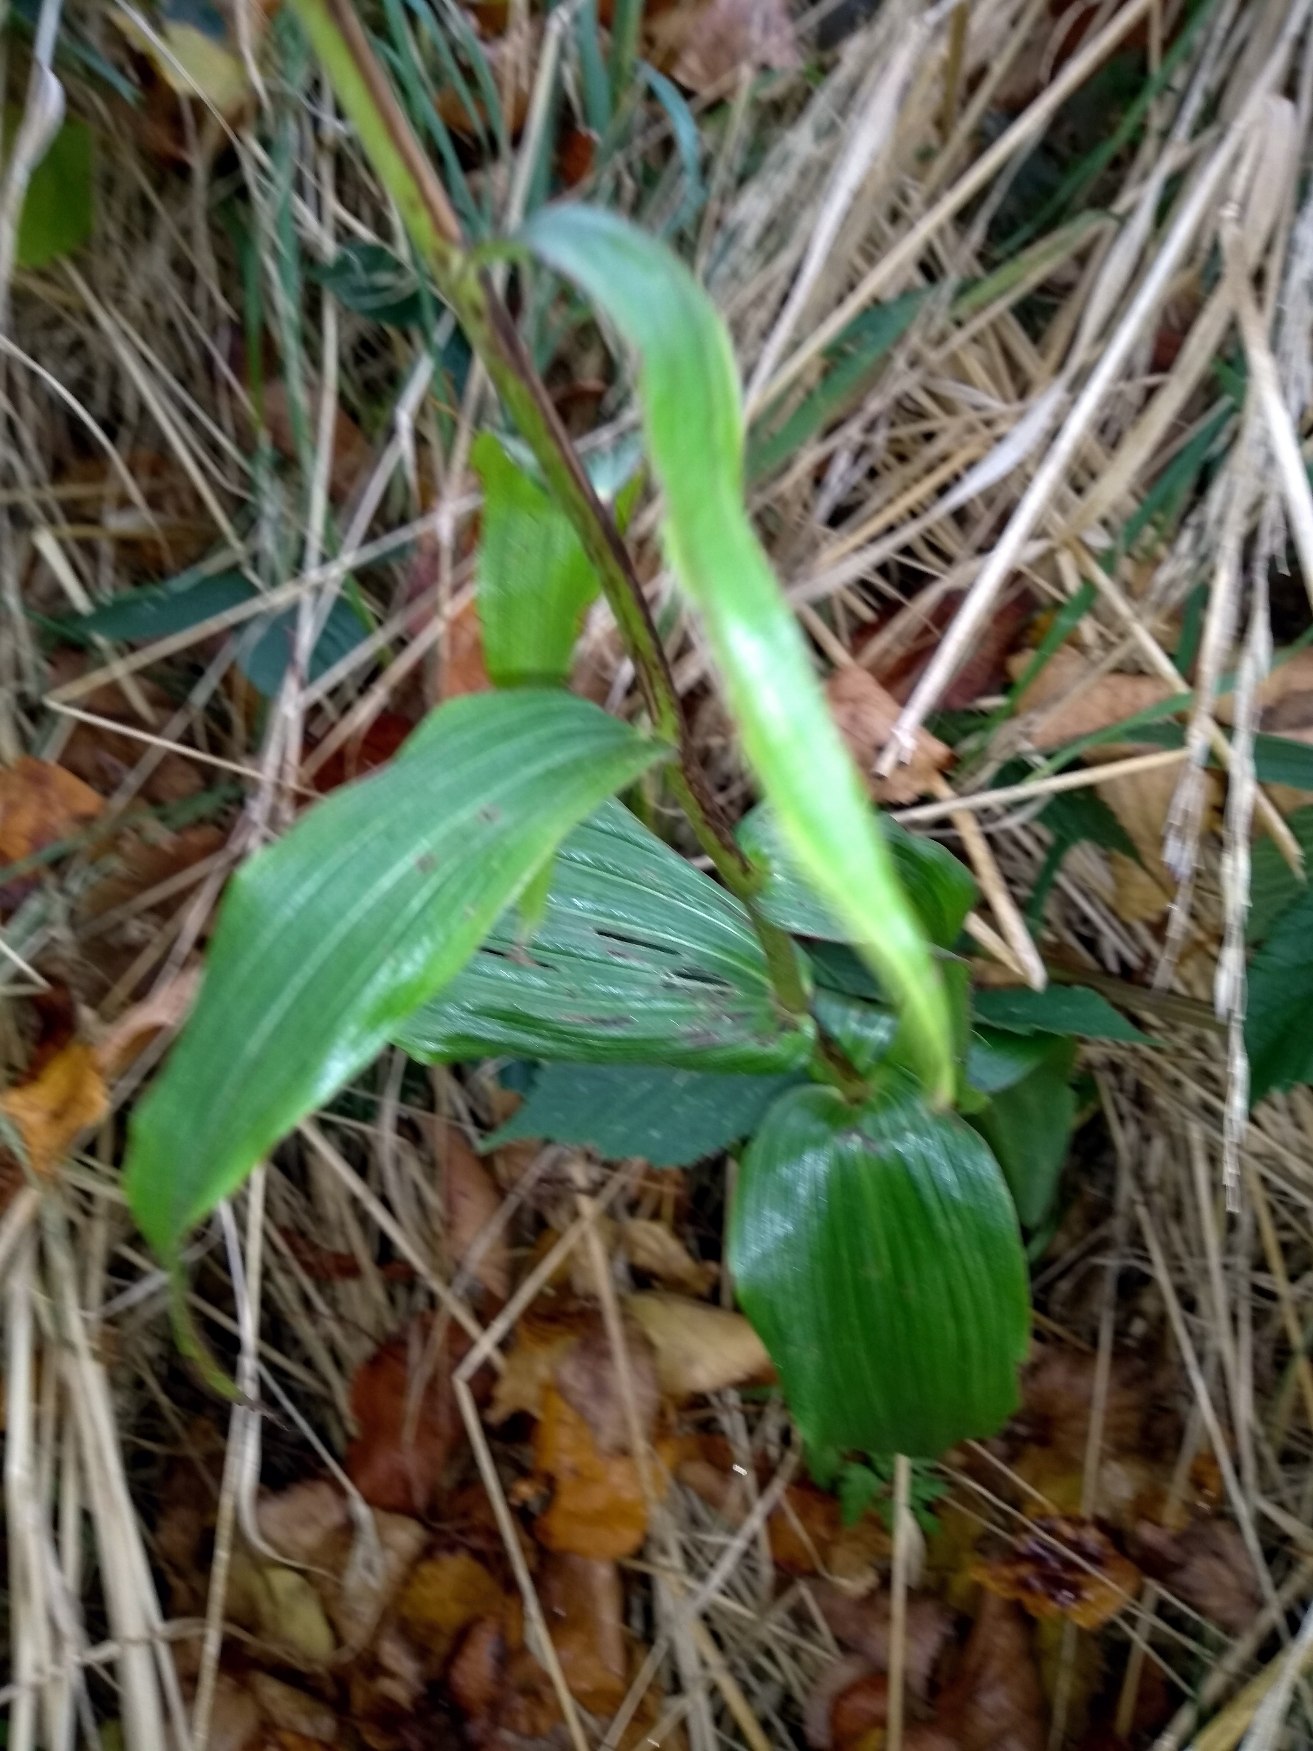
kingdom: Plantae
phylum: Tracheophyta
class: Liliopsida
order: Asparagales
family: Orchidaceae
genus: Epipactis
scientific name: Epipactis helleborine
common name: Skov-hullæbe
